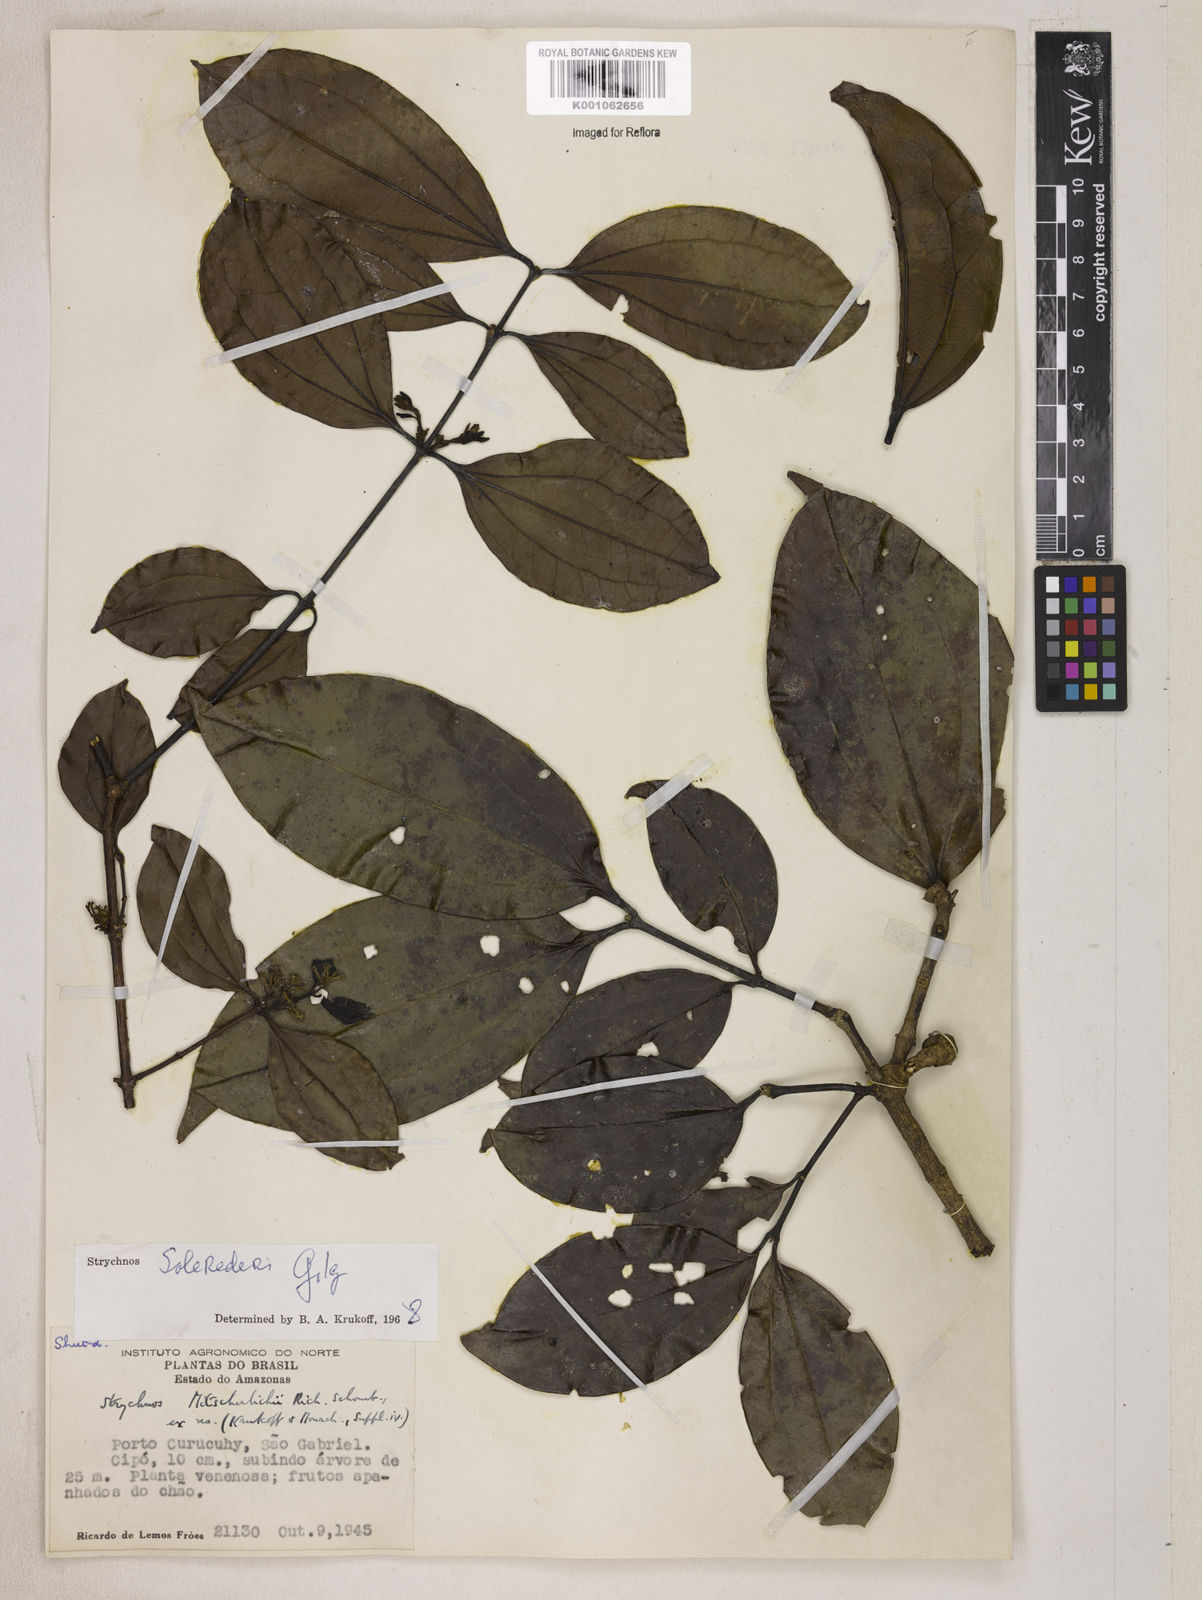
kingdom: Plantae
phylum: Tracheophyta
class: Magnoliopsida
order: Gentianales
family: Loganiaceae
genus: Strychnos
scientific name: Strychnos solerederi
